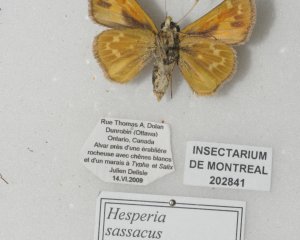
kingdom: Animalia
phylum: Arthropoda
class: Insecta
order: Lepidoptera
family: Hesperiidae
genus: Hesperia
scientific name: Hesperia sassacus
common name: Sassacus Skipper
